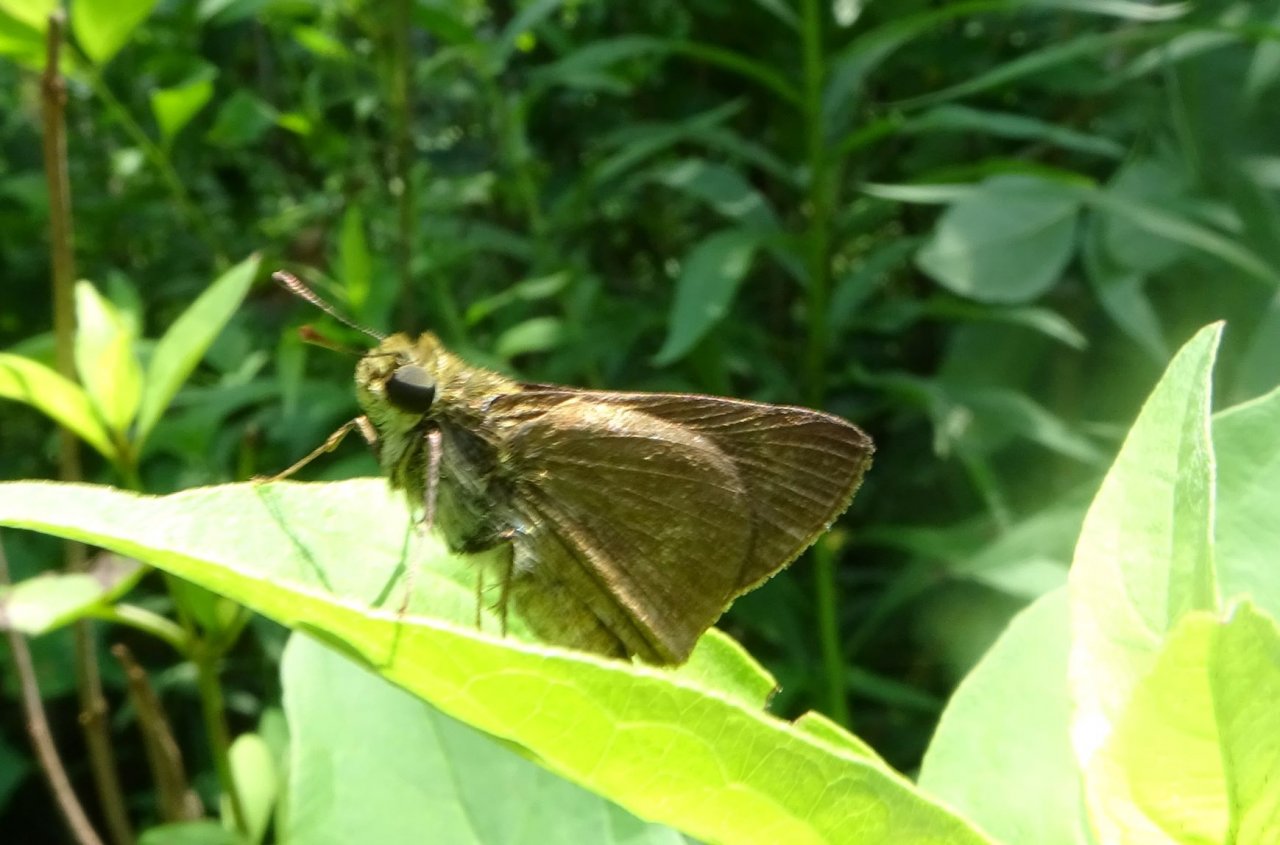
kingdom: Animalia
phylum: Arthropoda
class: Insecta
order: Lepidoptera
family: Hesperiidae
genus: Euphyes
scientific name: Euphyes vestris
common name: Dun Skipper
